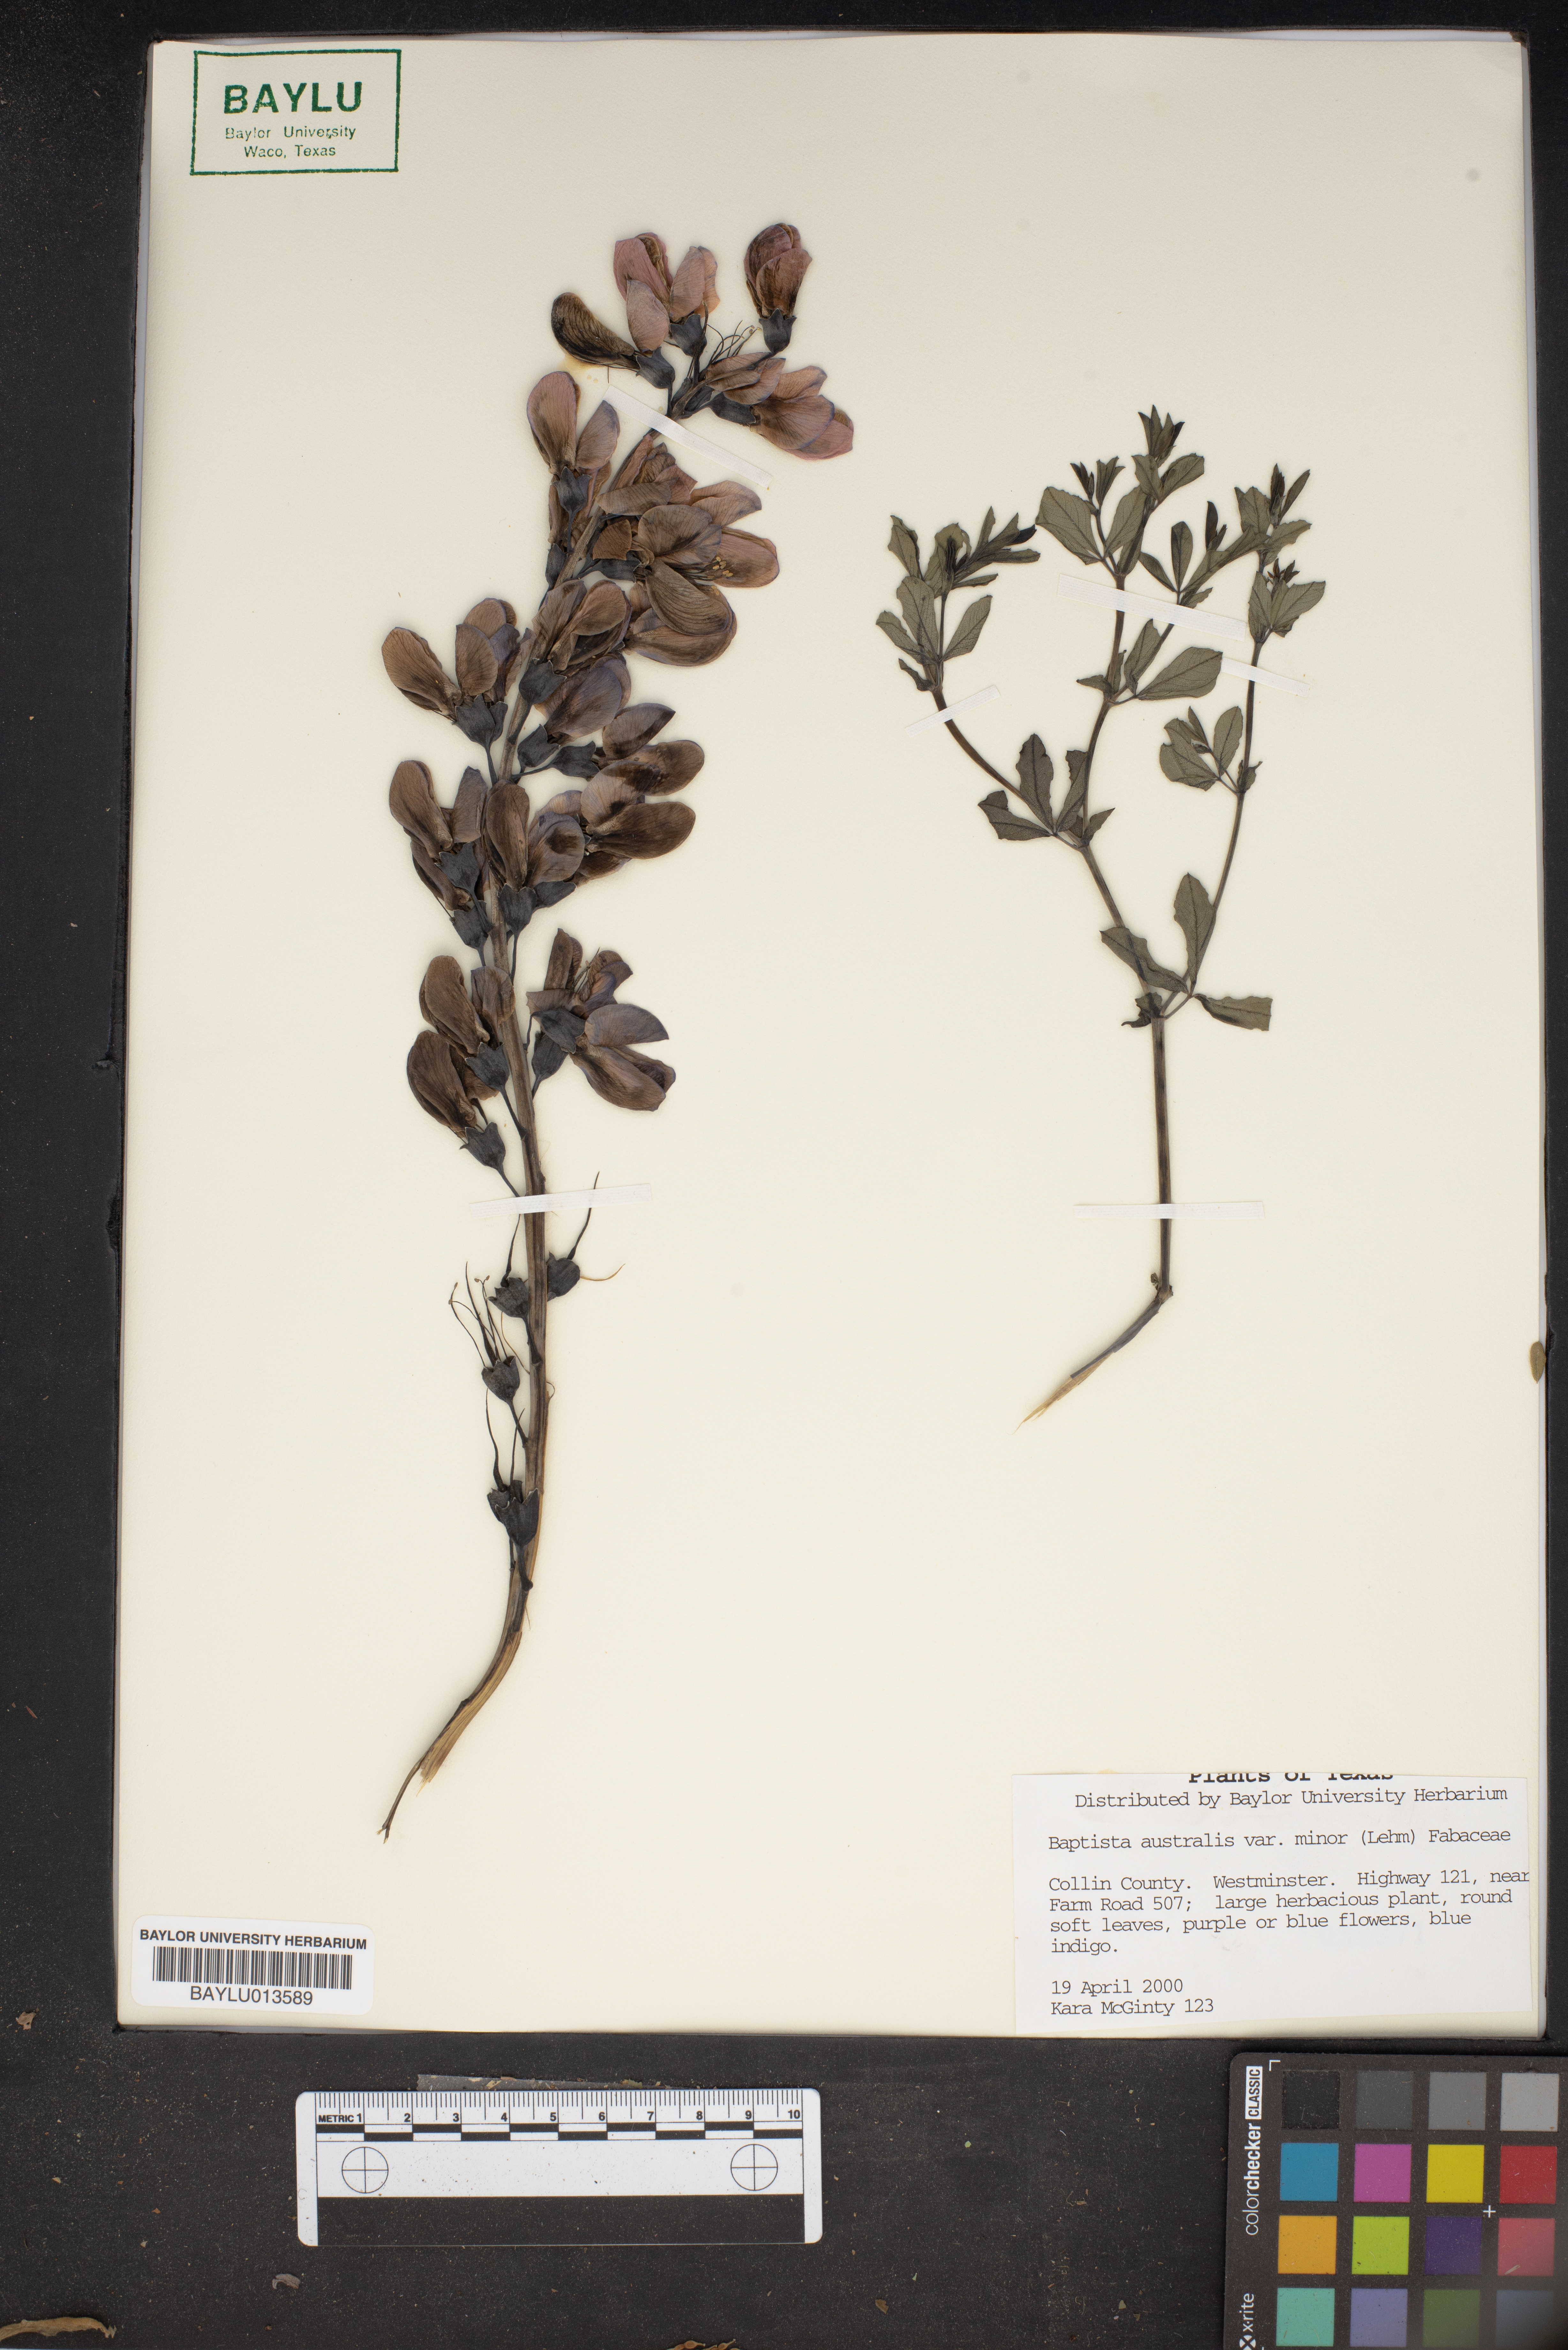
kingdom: Plantae
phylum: Tracheophyta
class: Magnoliopsida
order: Fabales
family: Fabaceae
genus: Baptisia
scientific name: Baptisia australis
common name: Blue false indigo
